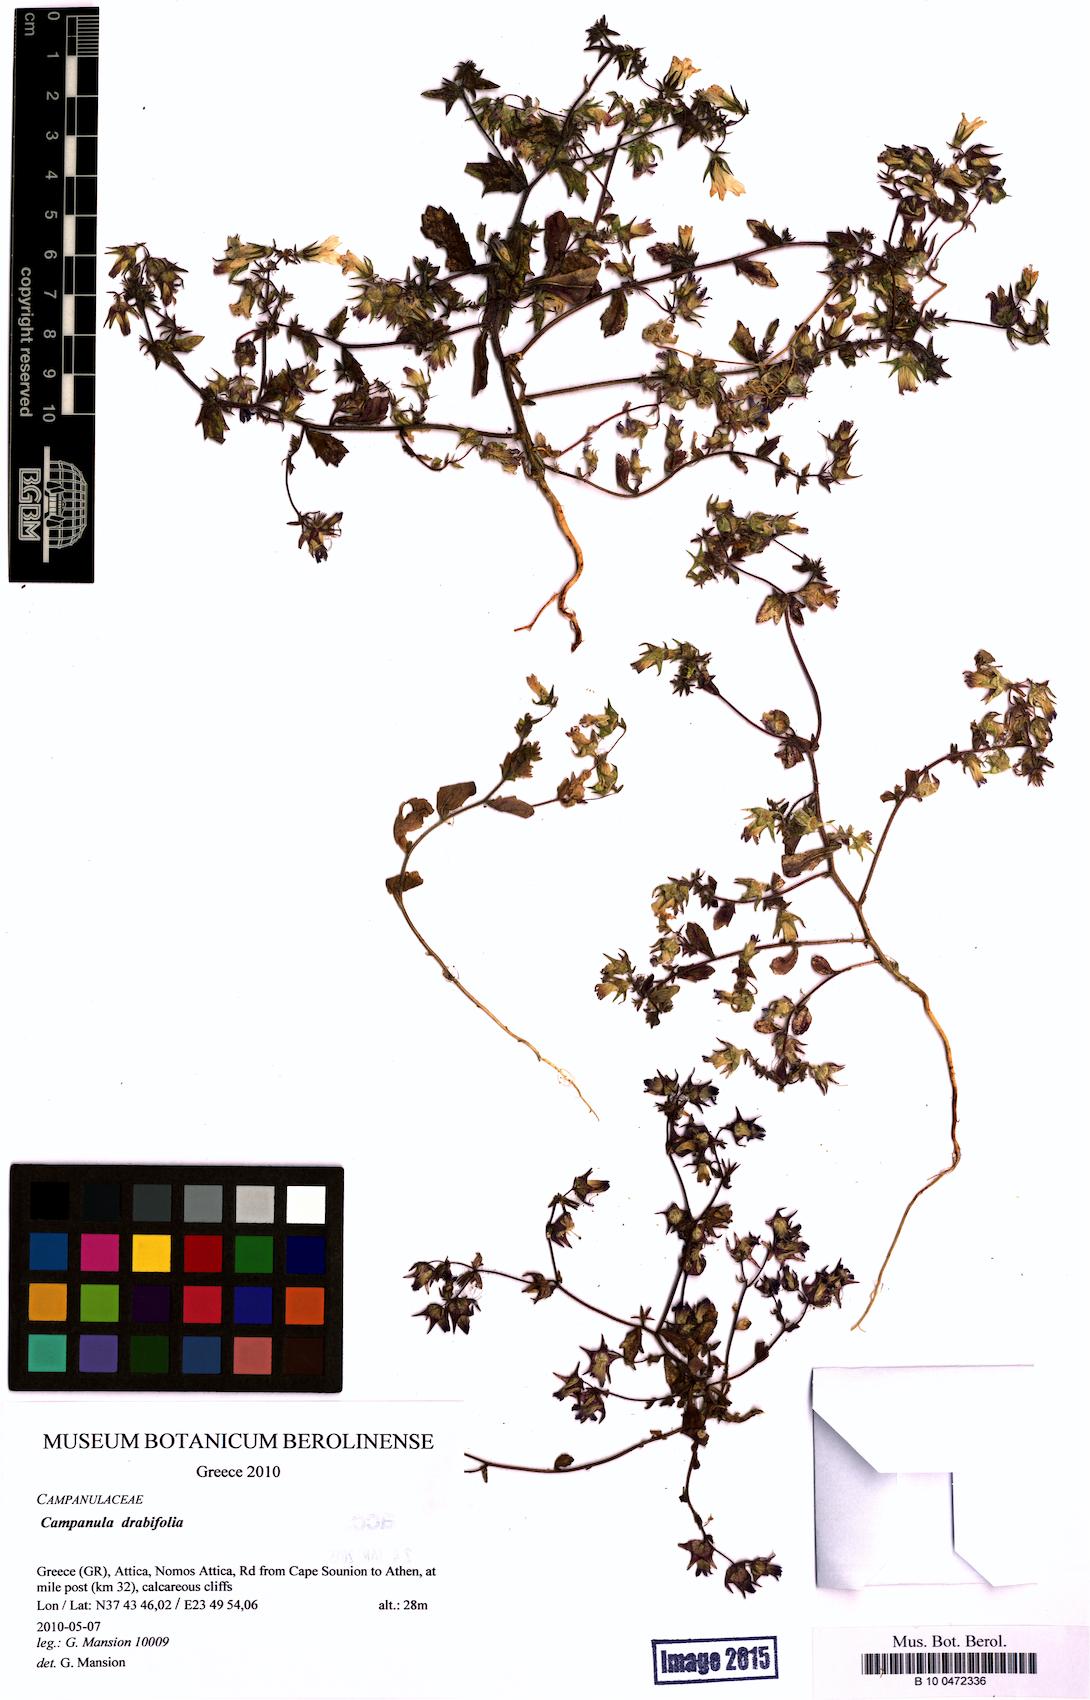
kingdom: Plantae
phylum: Tracheophyta
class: Magnoliopsida
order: Asterales
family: Campanulaceae
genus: Campanula
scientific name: Campanula drabifolia
